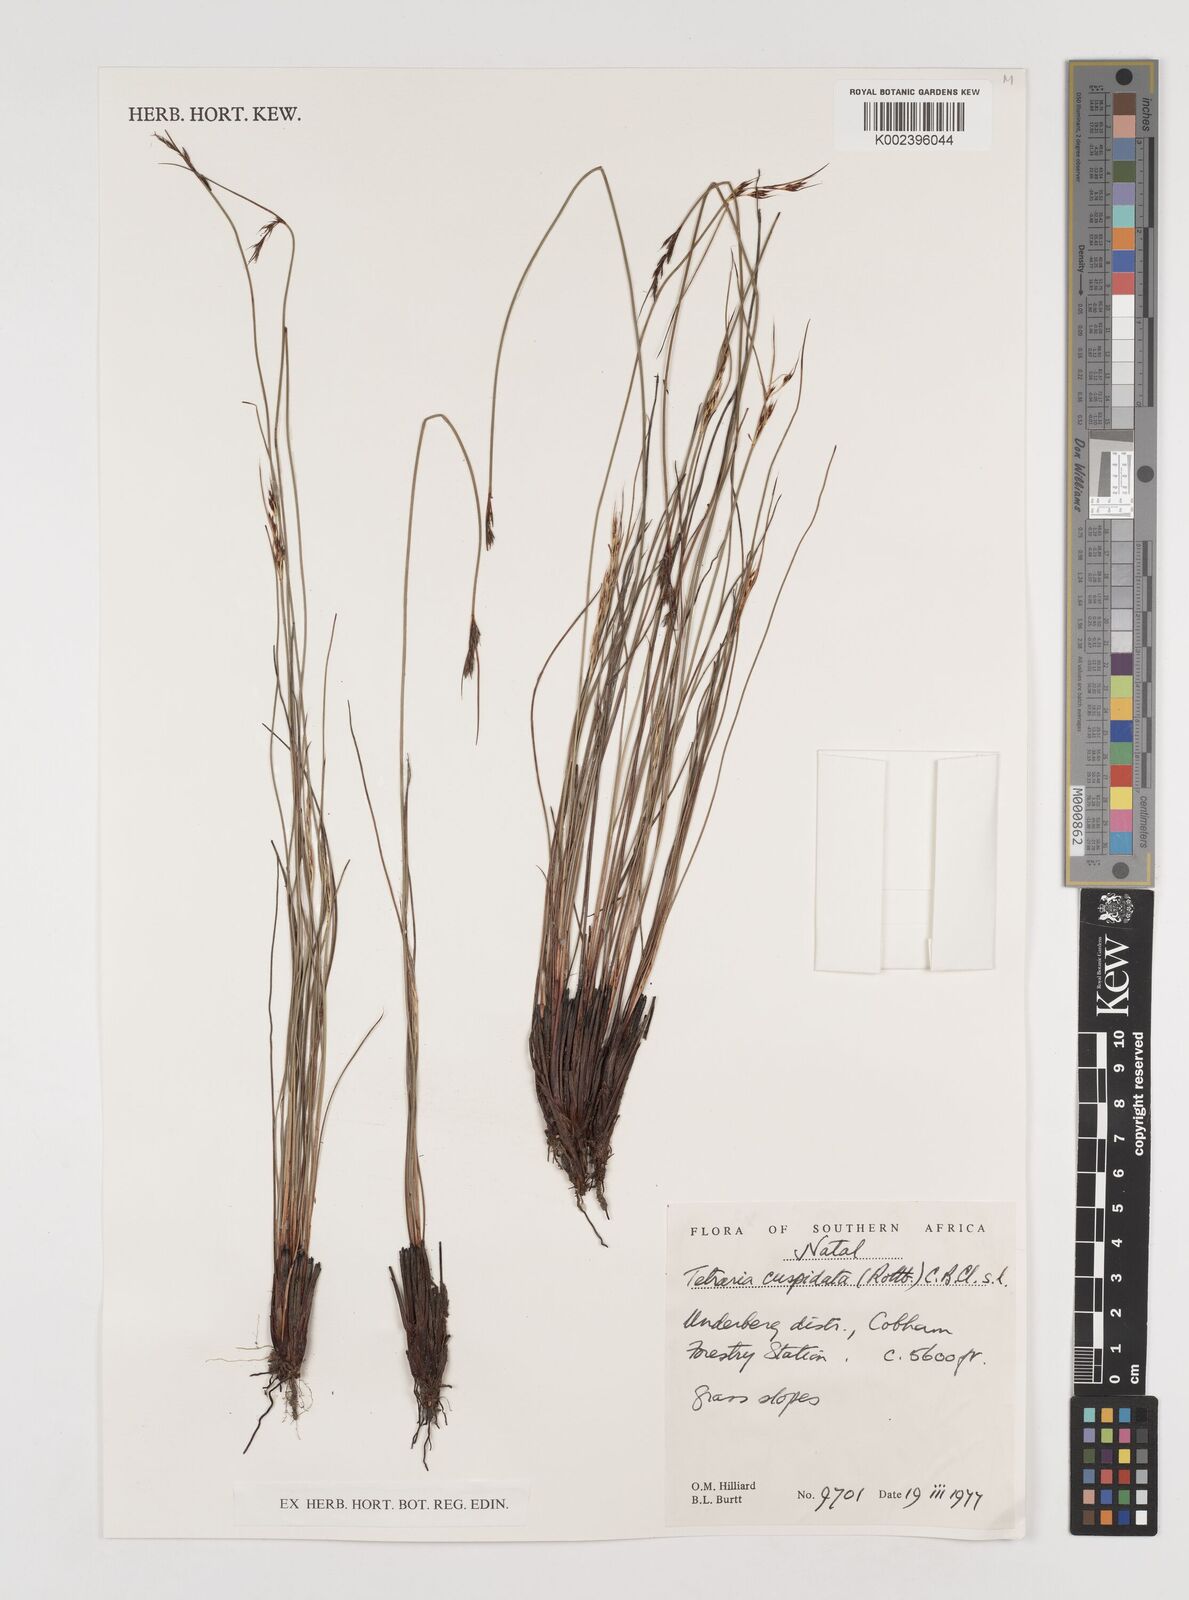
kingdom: Plantae
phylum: Tracheophyta
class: Liliopsida
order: Poales
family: Cyperaceae
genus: Schoenus
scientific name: Schoenus cuspidatus
